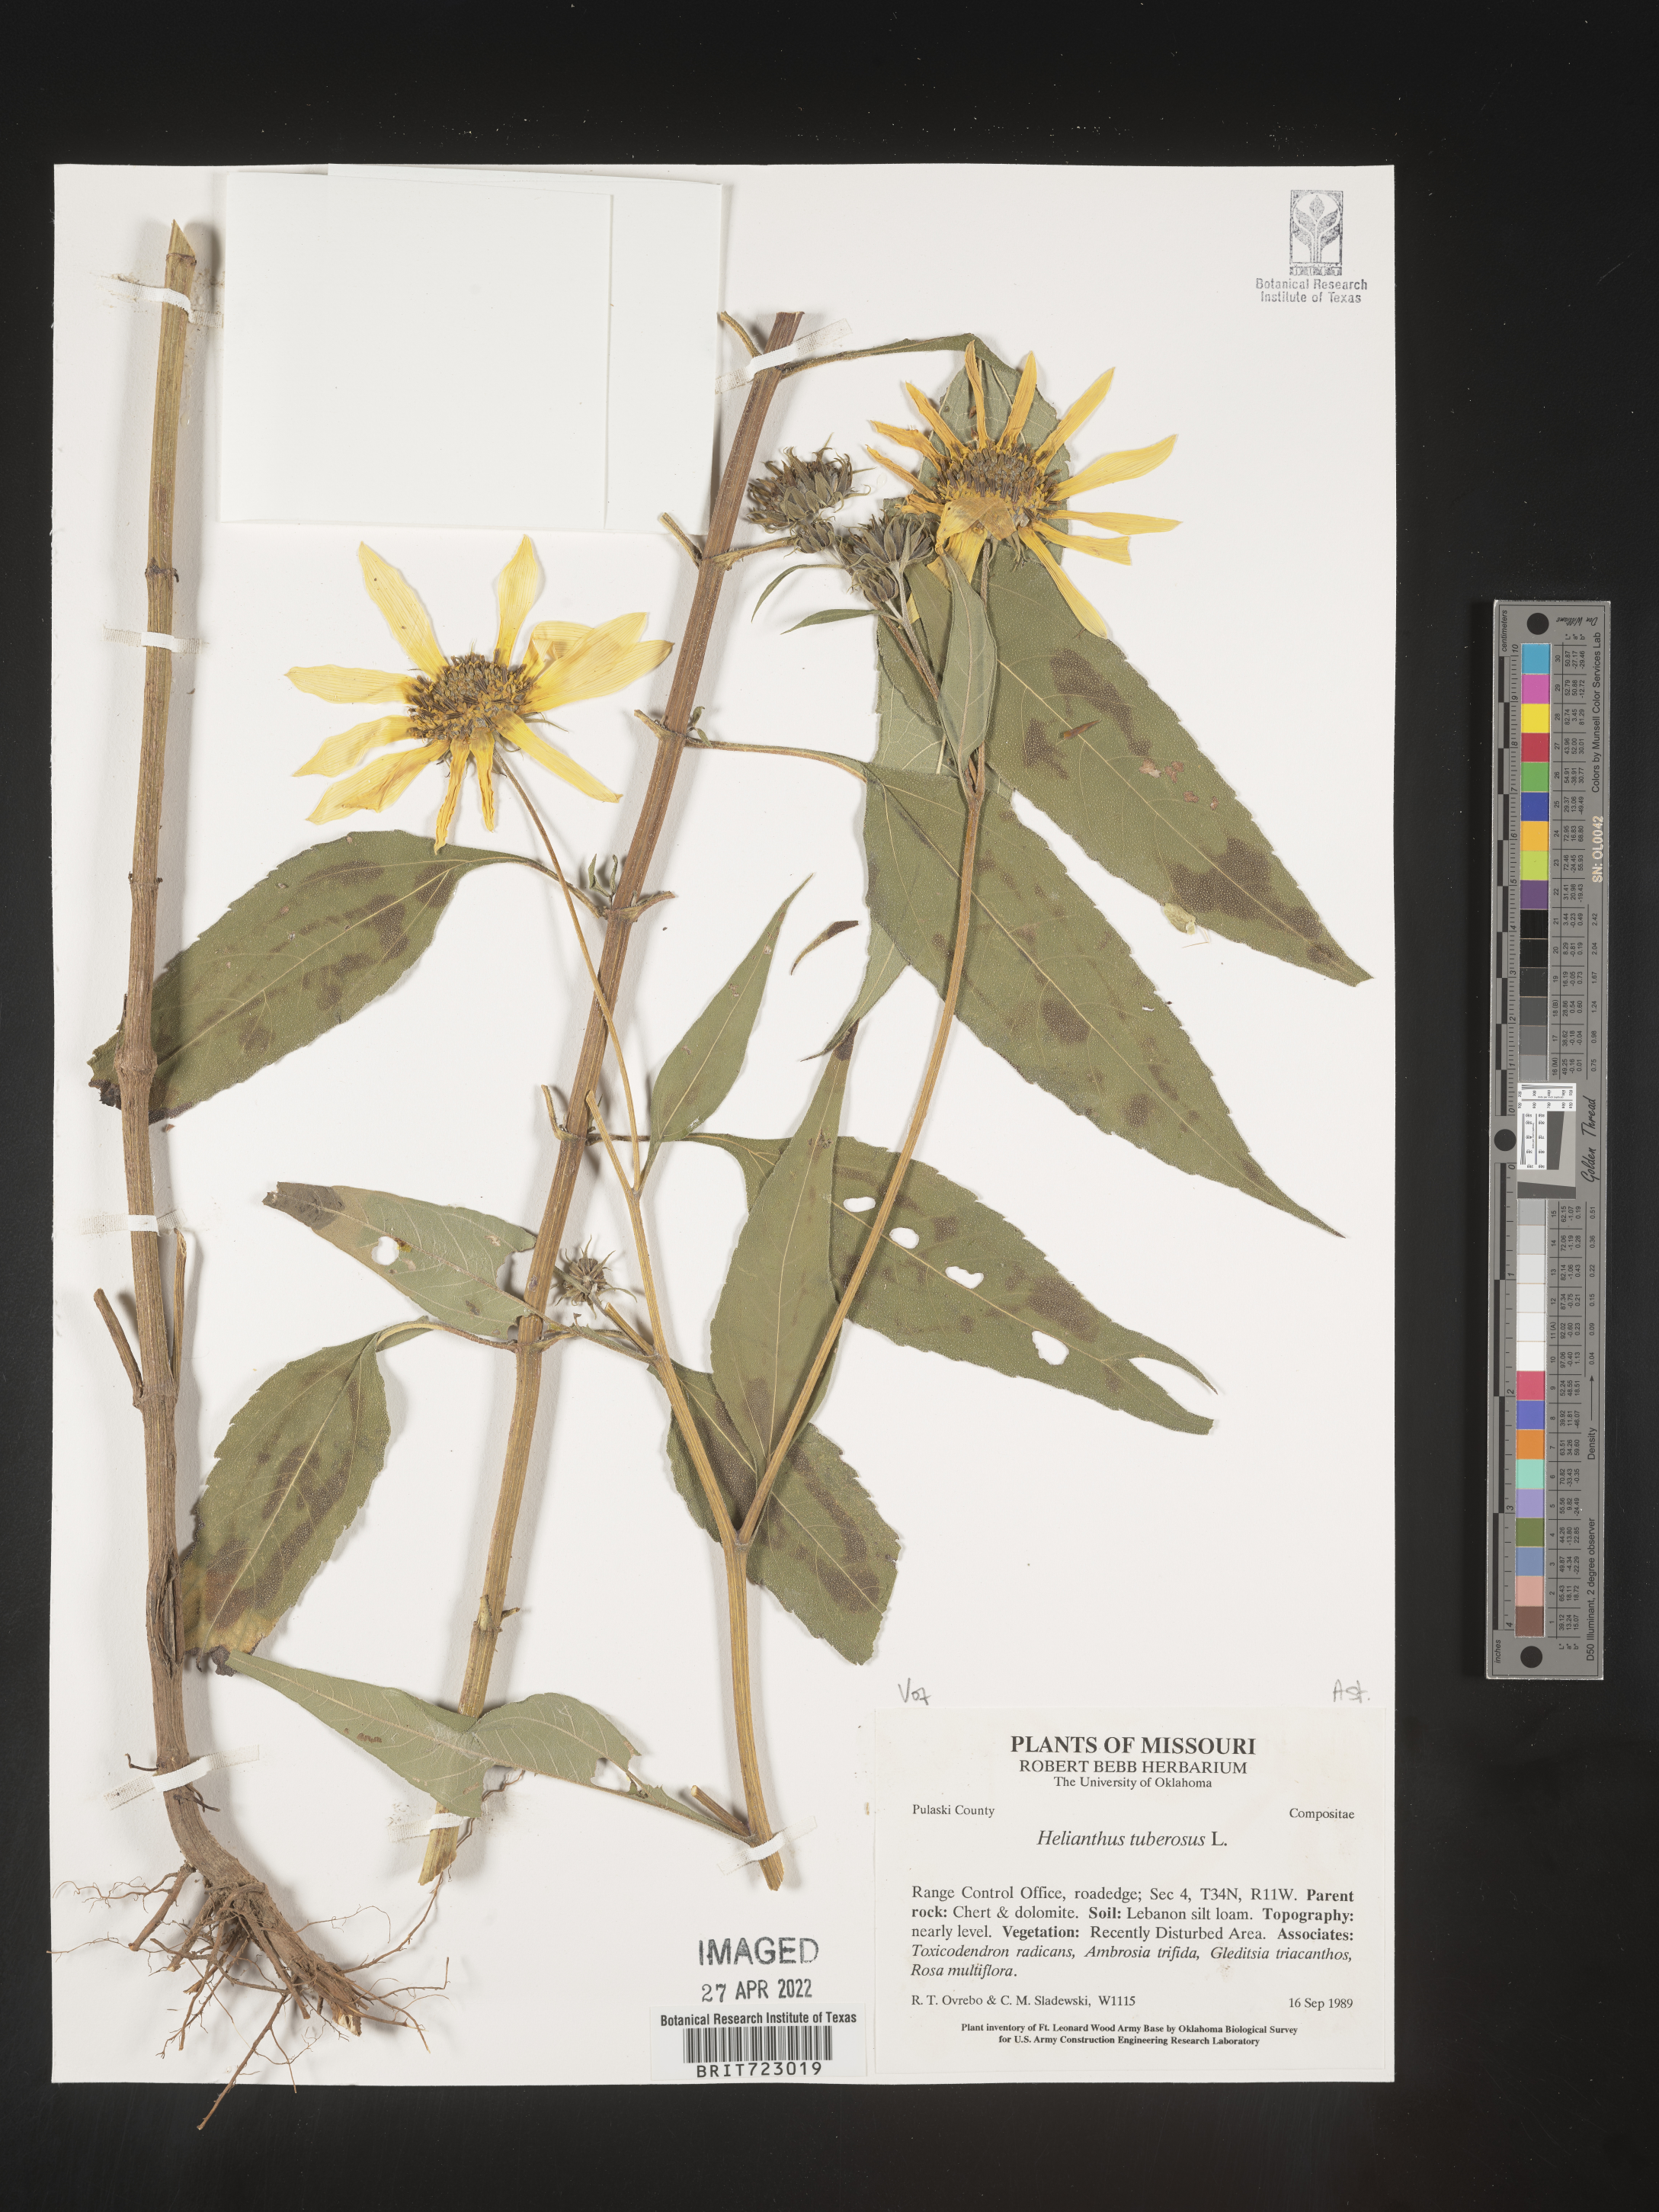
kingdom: Plantae
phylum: Tracheophyta
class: Magnoliopsida
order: Asterales
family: Asteraceae
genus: Helianthus
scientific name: Helianthus tuberosus
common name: Jerusalem artichoke
